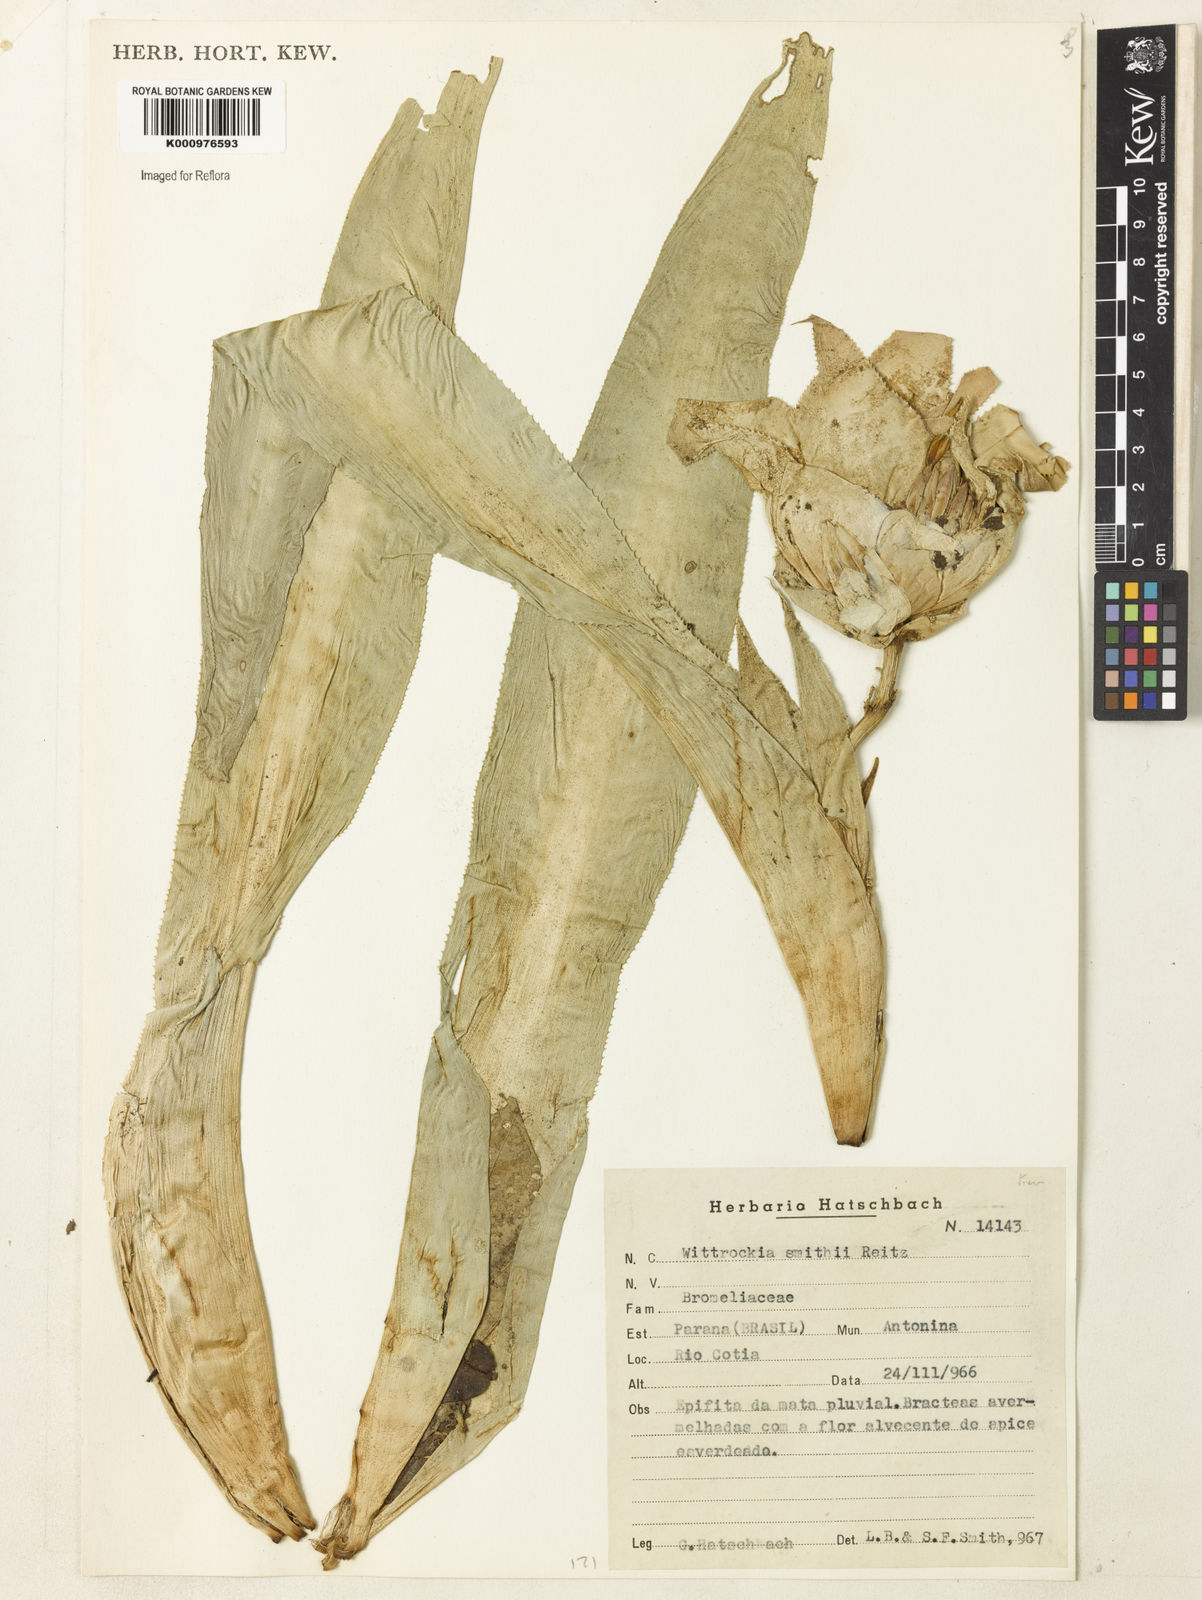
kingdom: Plantae
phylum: Tracheophyta
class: Liliopsida
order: Poales
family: Bromeliaceae
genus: Nidularium
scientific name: Nidularium amazonicum
